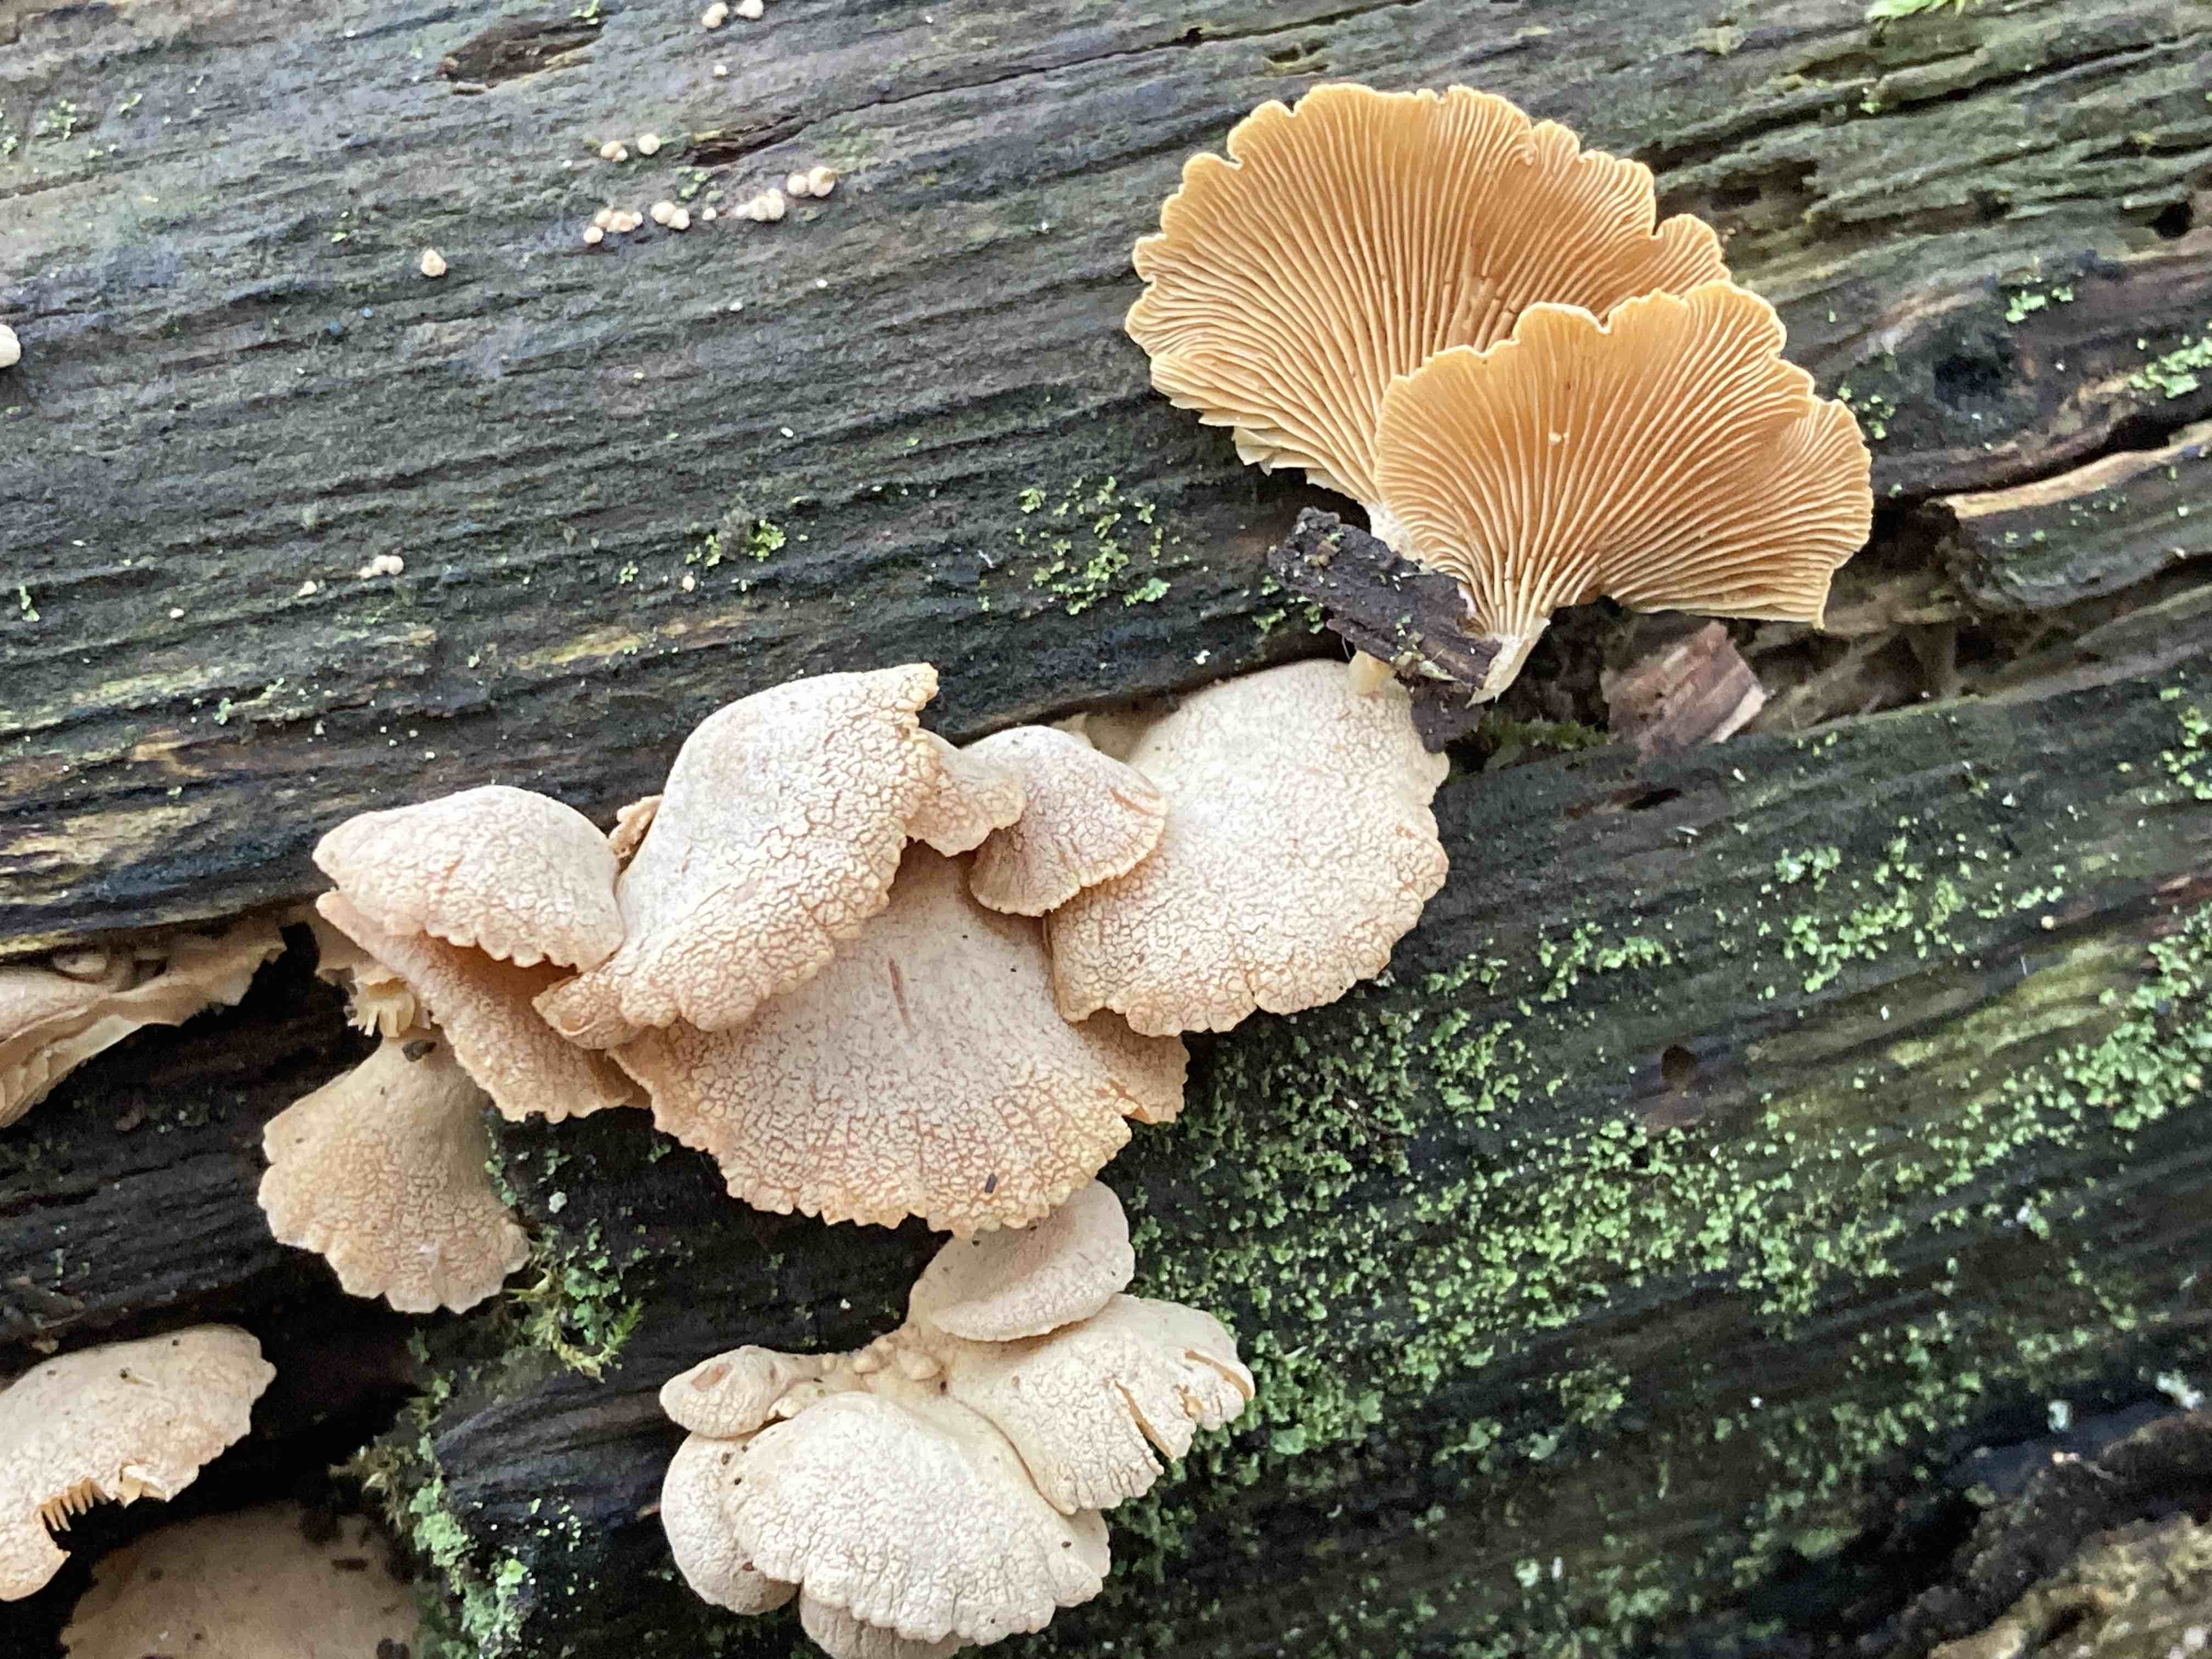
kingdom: Fungi
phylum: Basidiomycota
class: Agaricomycetes
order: Agaricales
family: Mycenaceae
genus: Panellus
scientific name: Panellus stipticus
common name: kliddet epaulethat
